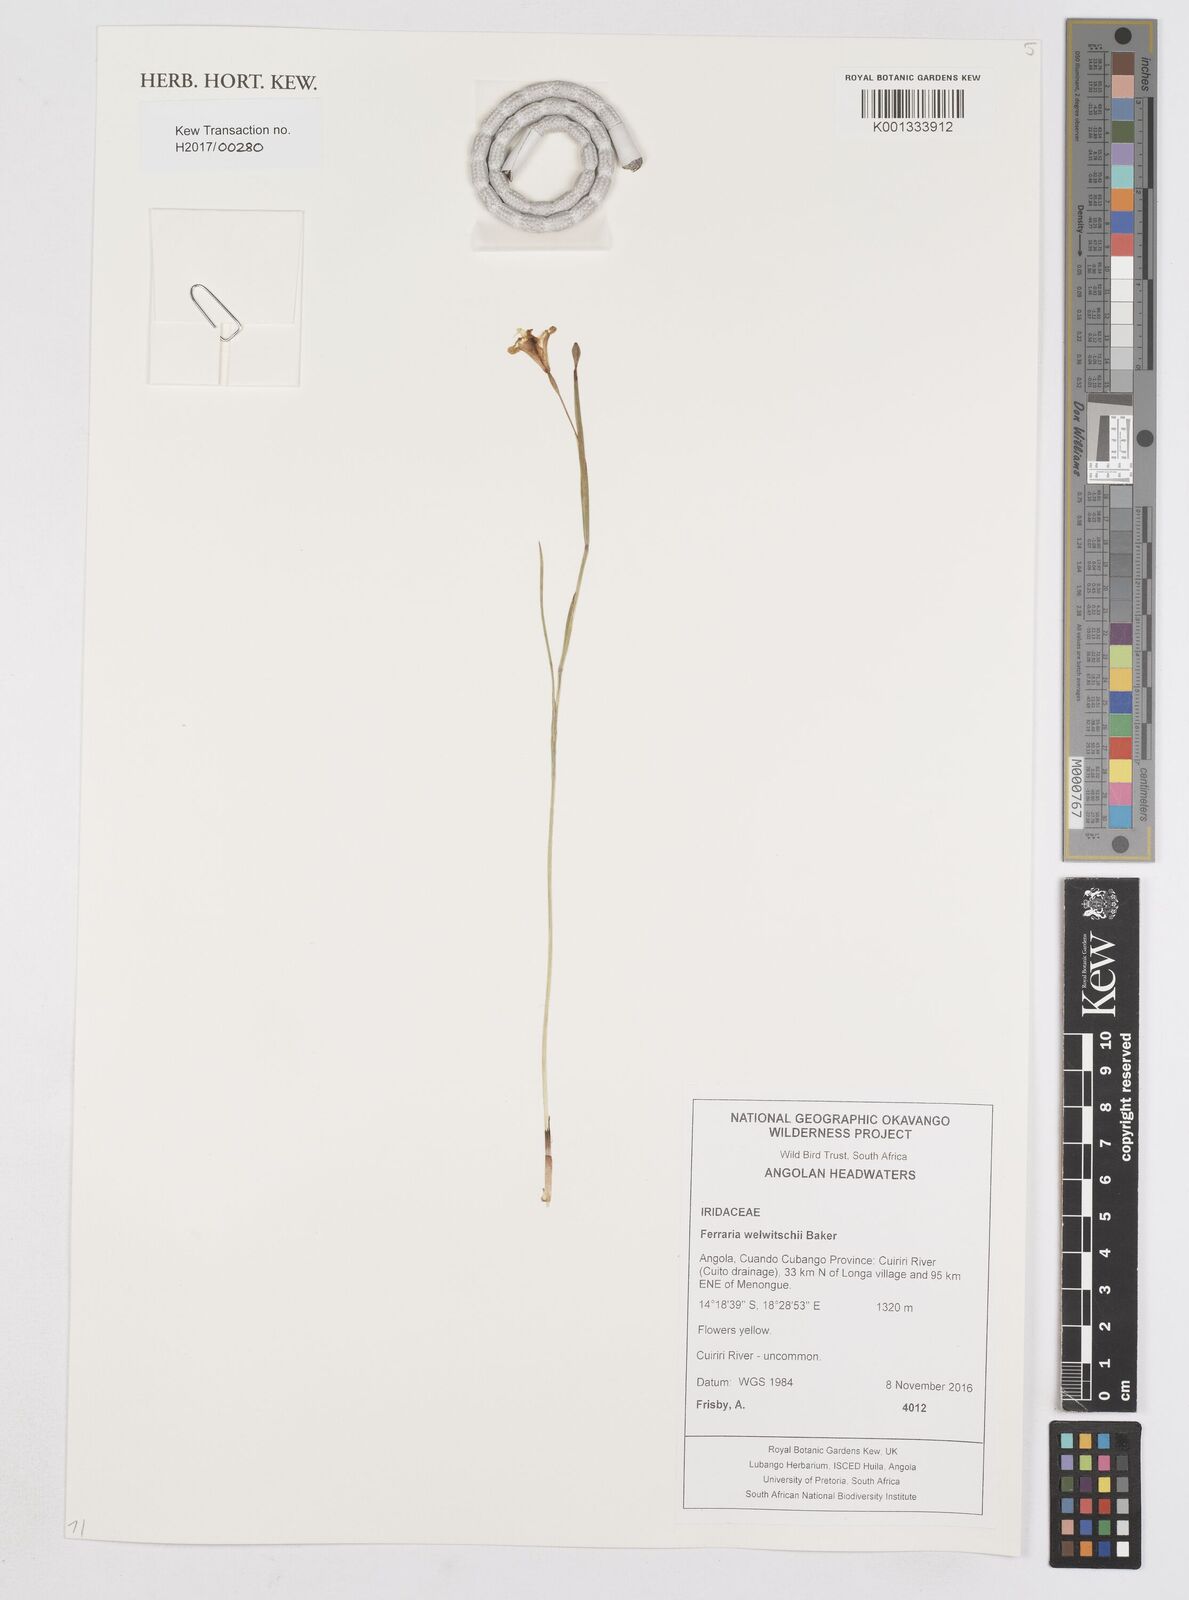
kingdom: Plantae
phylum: Tracheophyta
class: Liliopsida
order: Asparagales
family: Iridaceae
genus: Ferraria
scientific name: Ferraria welwitschii
